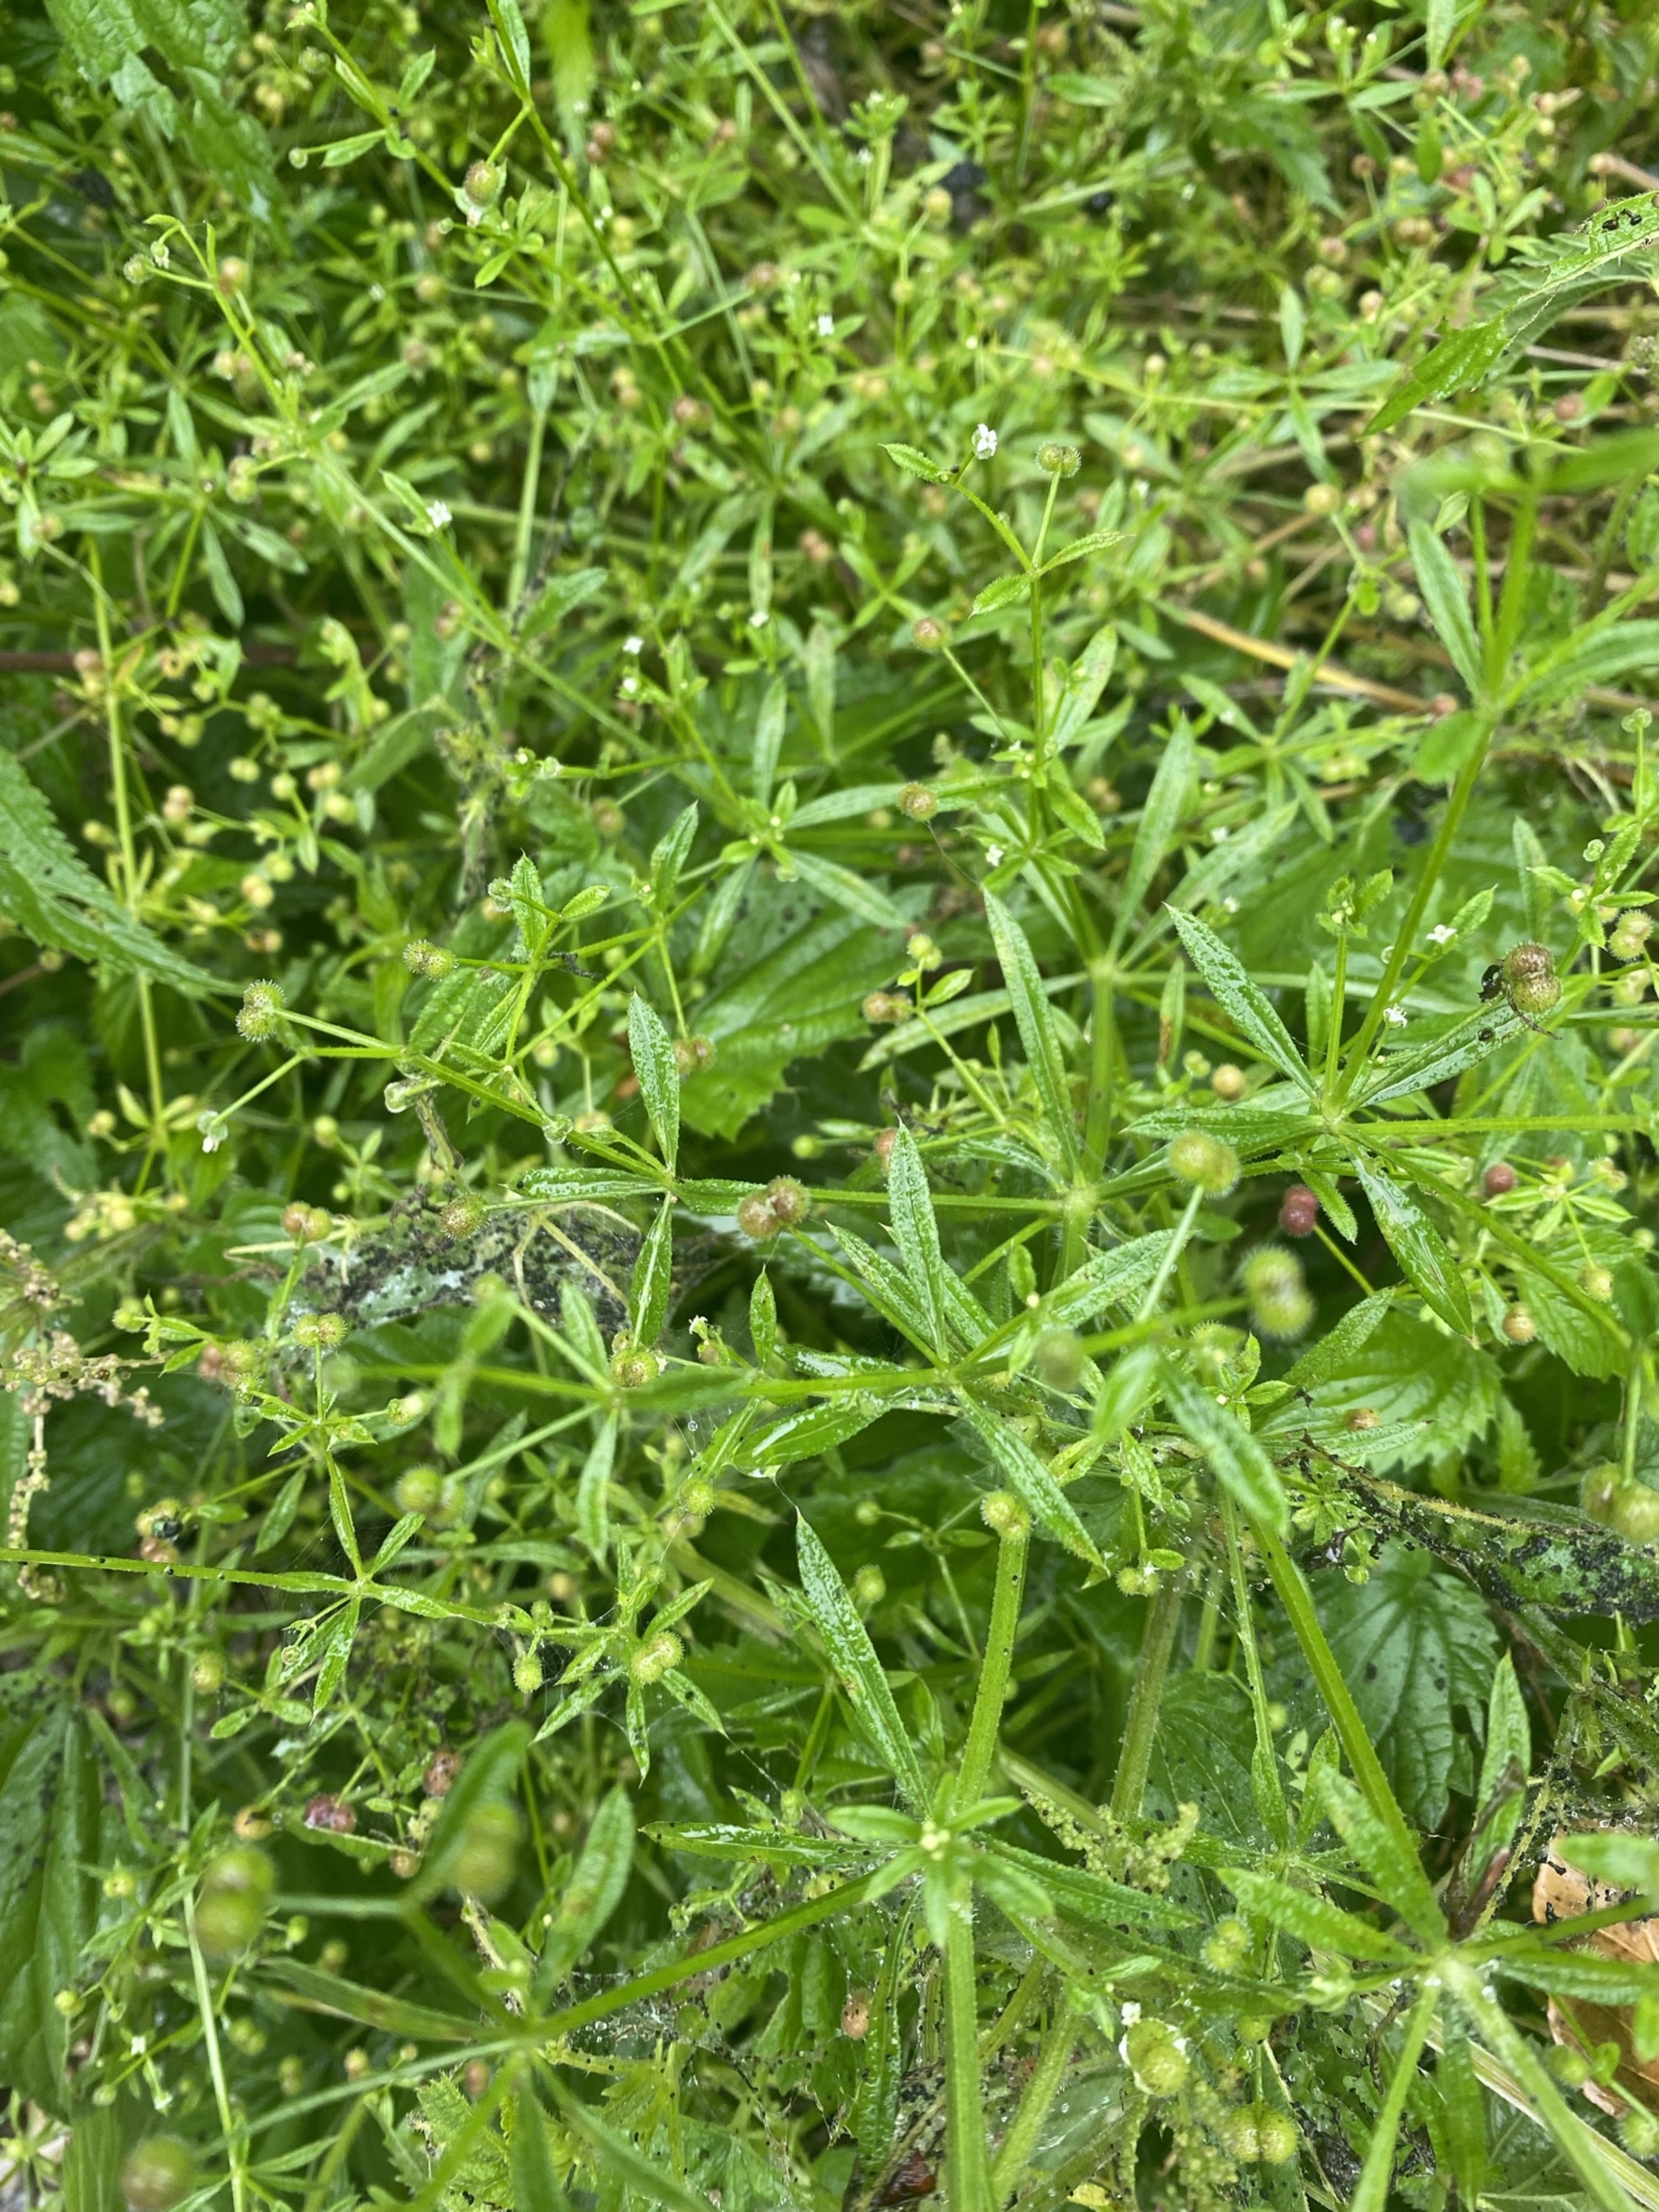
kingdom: Plantae
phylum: Tracheophyta
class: Magnoliopsida
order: Gentianales
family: Rubiaceae
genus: Galium
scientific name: Galium aparine
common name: Burre-snerre
